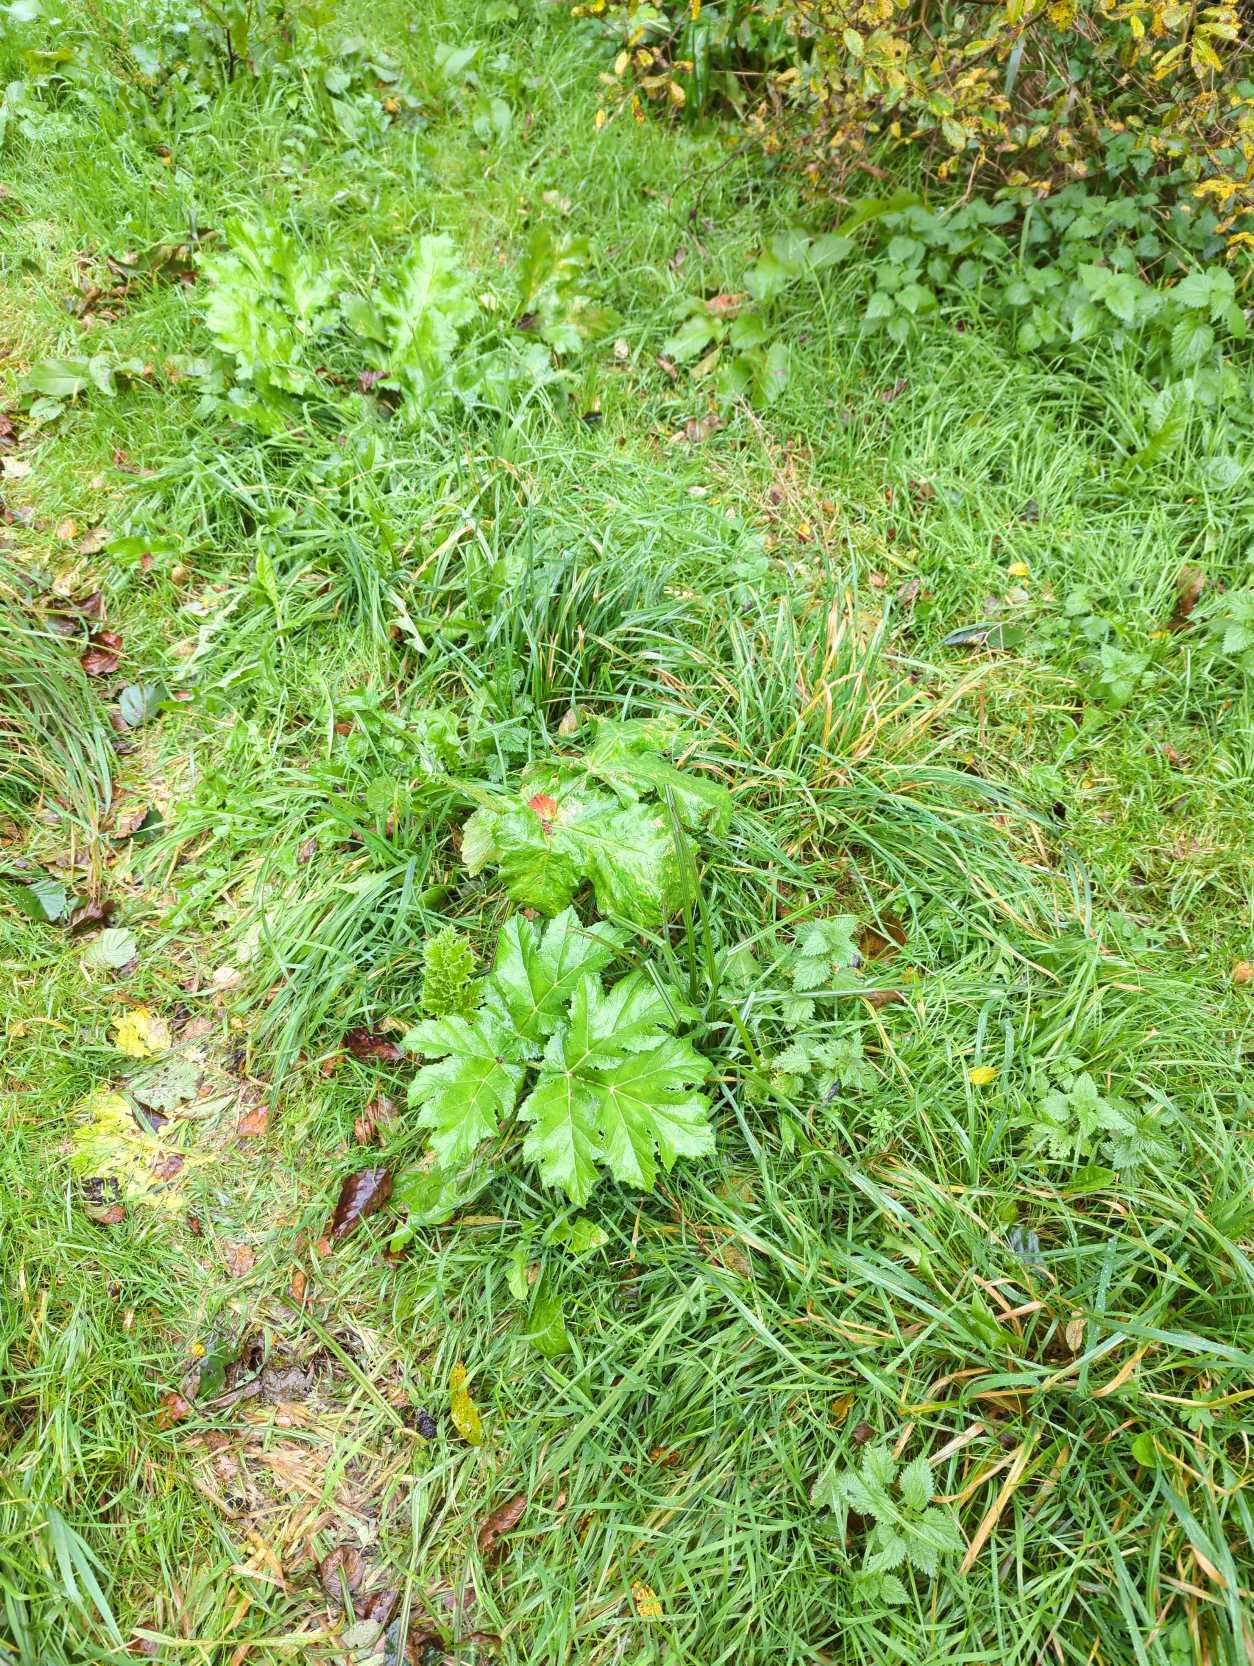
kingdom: Plantae
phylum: Tracheophyta
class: Magnoliopsida
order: Apiales
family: Apiaceae
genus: Heracleum
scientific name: Heracleum mantegazzianum
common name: Kæmpe-bjørneklo
